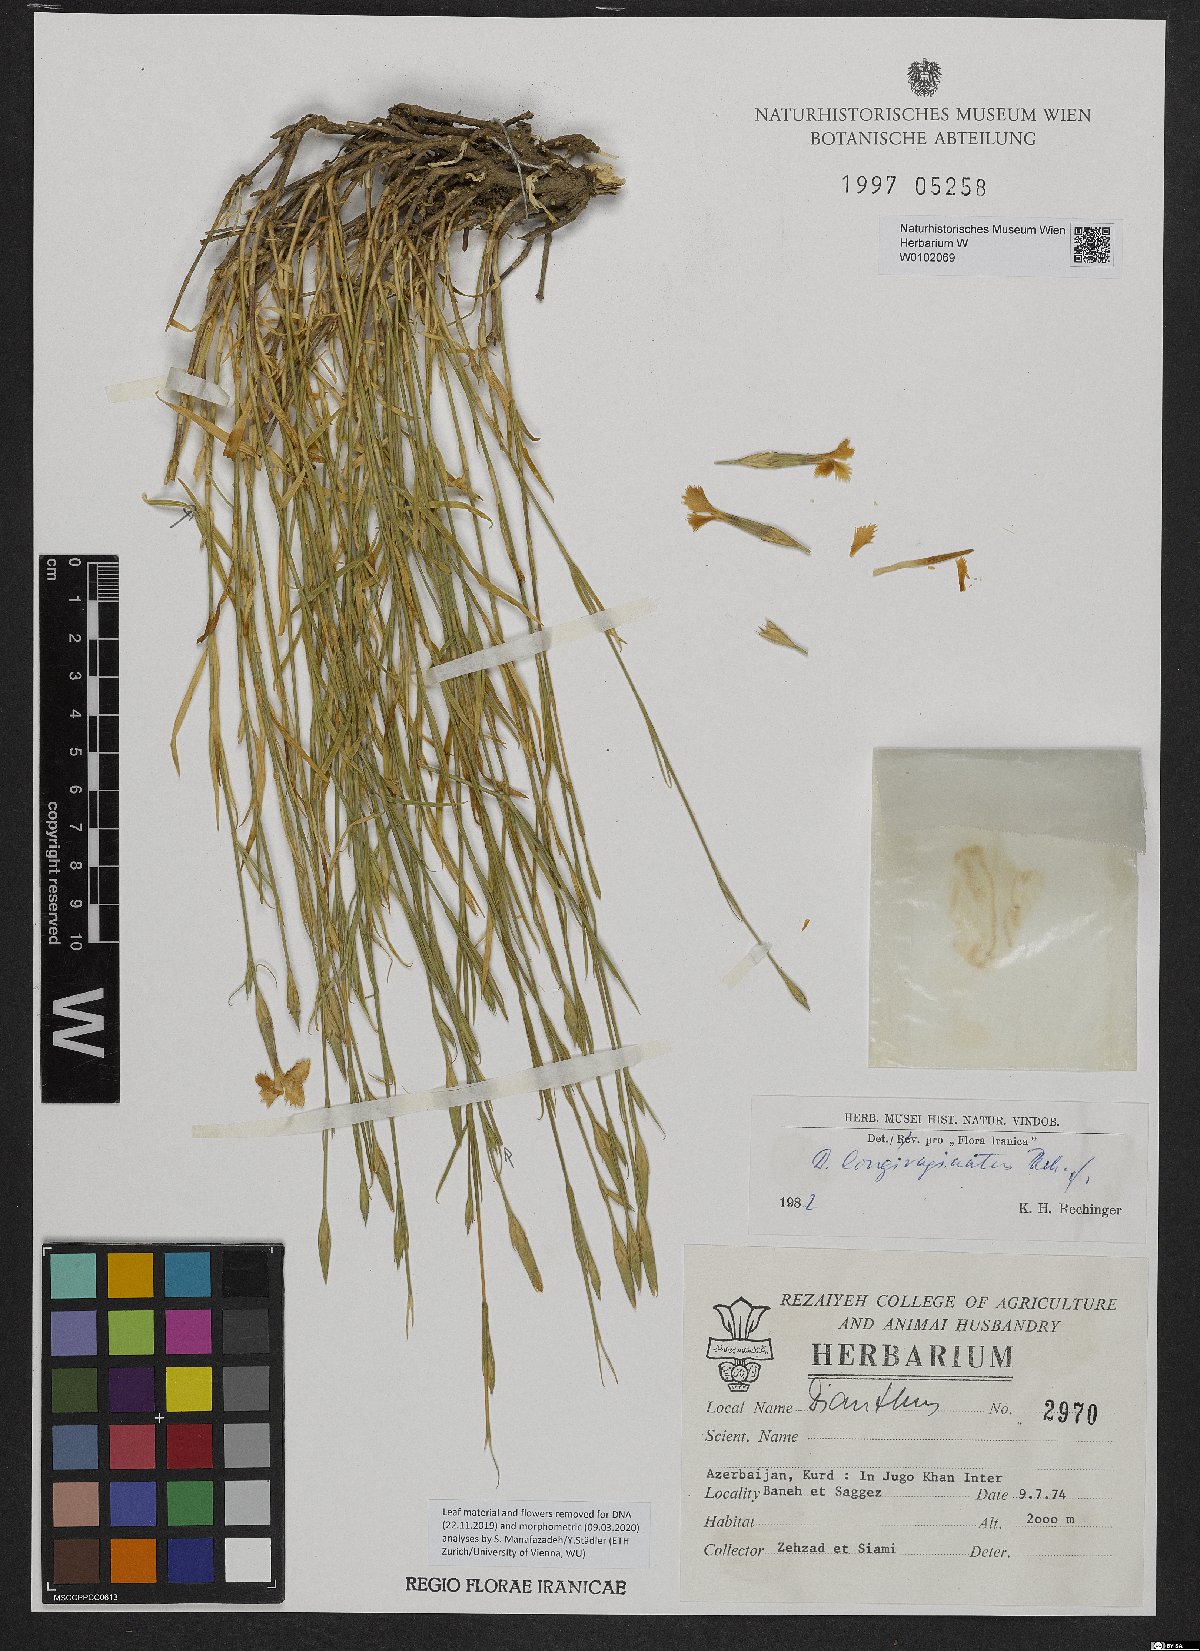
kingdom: Plantae
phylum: Tracheophyta
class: Magnoliopsida
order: Caryophyllales
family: Caryophyllaceae
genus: Dianthus
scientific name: Dianthus longivaginatus
